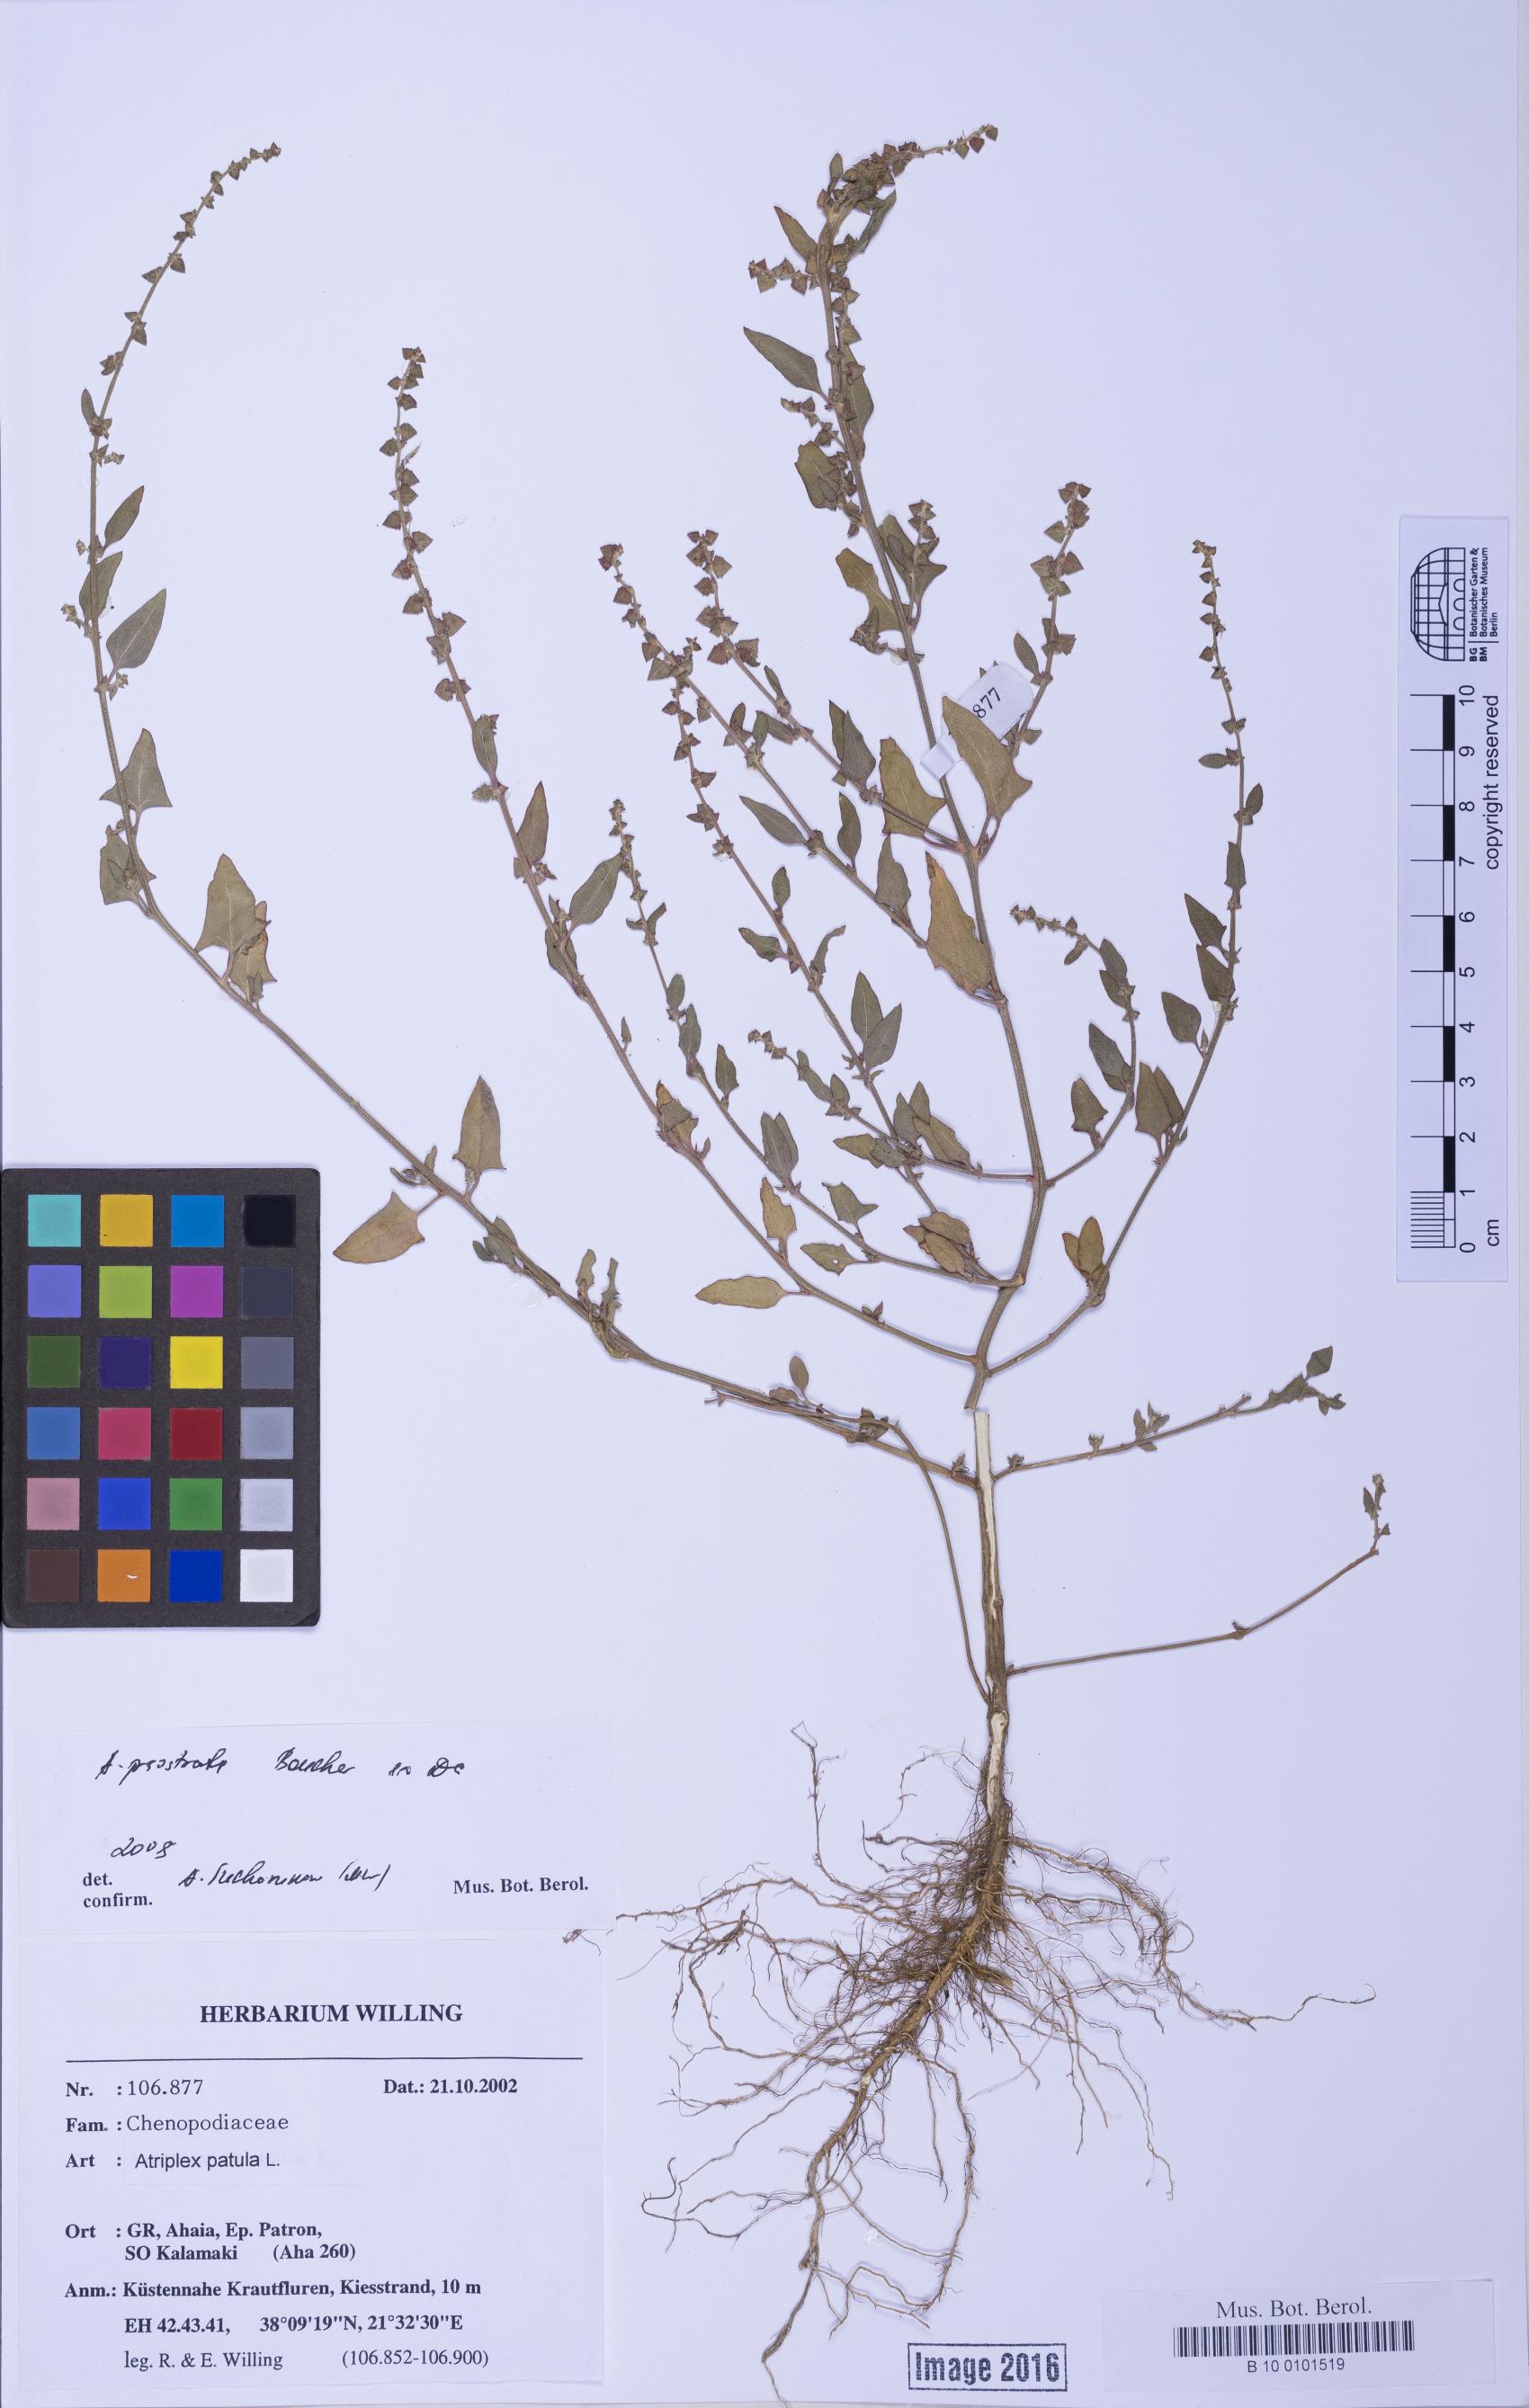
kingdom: Plantae
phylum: Tracheophyta
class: Magnoliopsida
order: Caryophyllales
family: Amaranthaceae
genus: Atriplex
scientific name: Atriplex prostrata
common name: Spear-leaved orache
